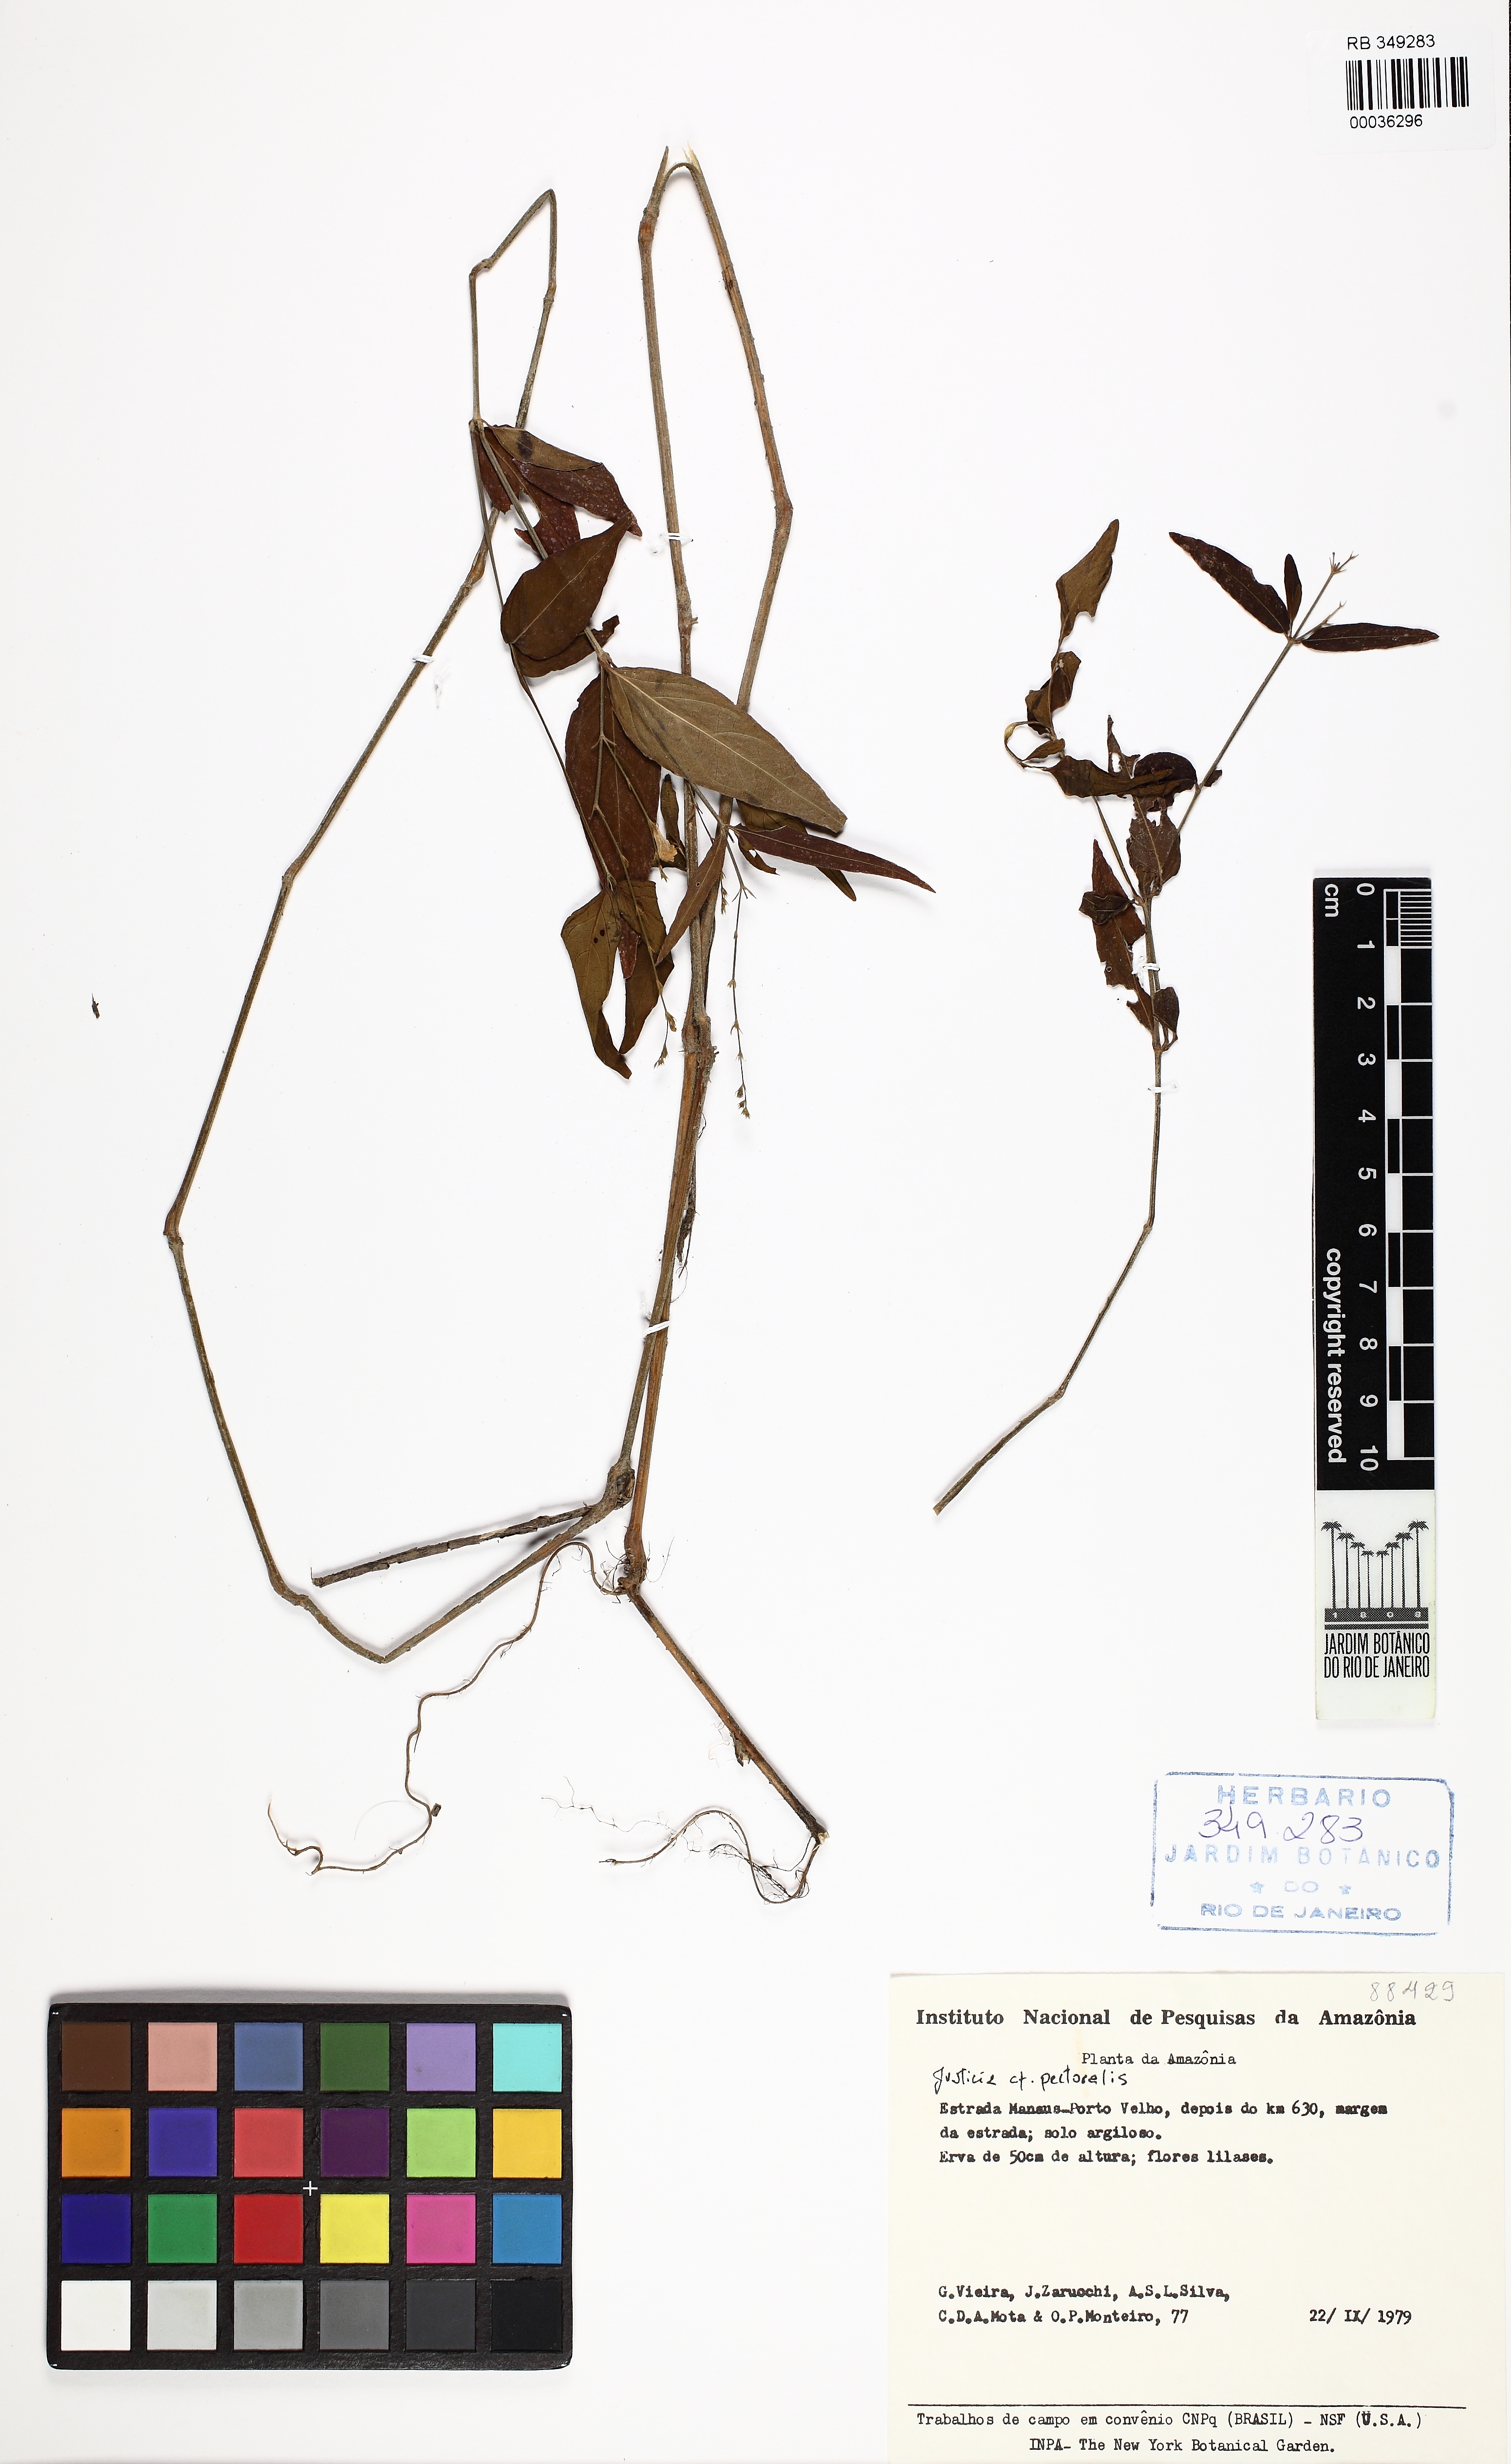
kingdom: Plantae
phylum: Tracheophyta
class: Magnoliopsida
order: Lamiales
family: Acanthaceae
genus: Dianthera
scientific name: Dianthera pectoralis
